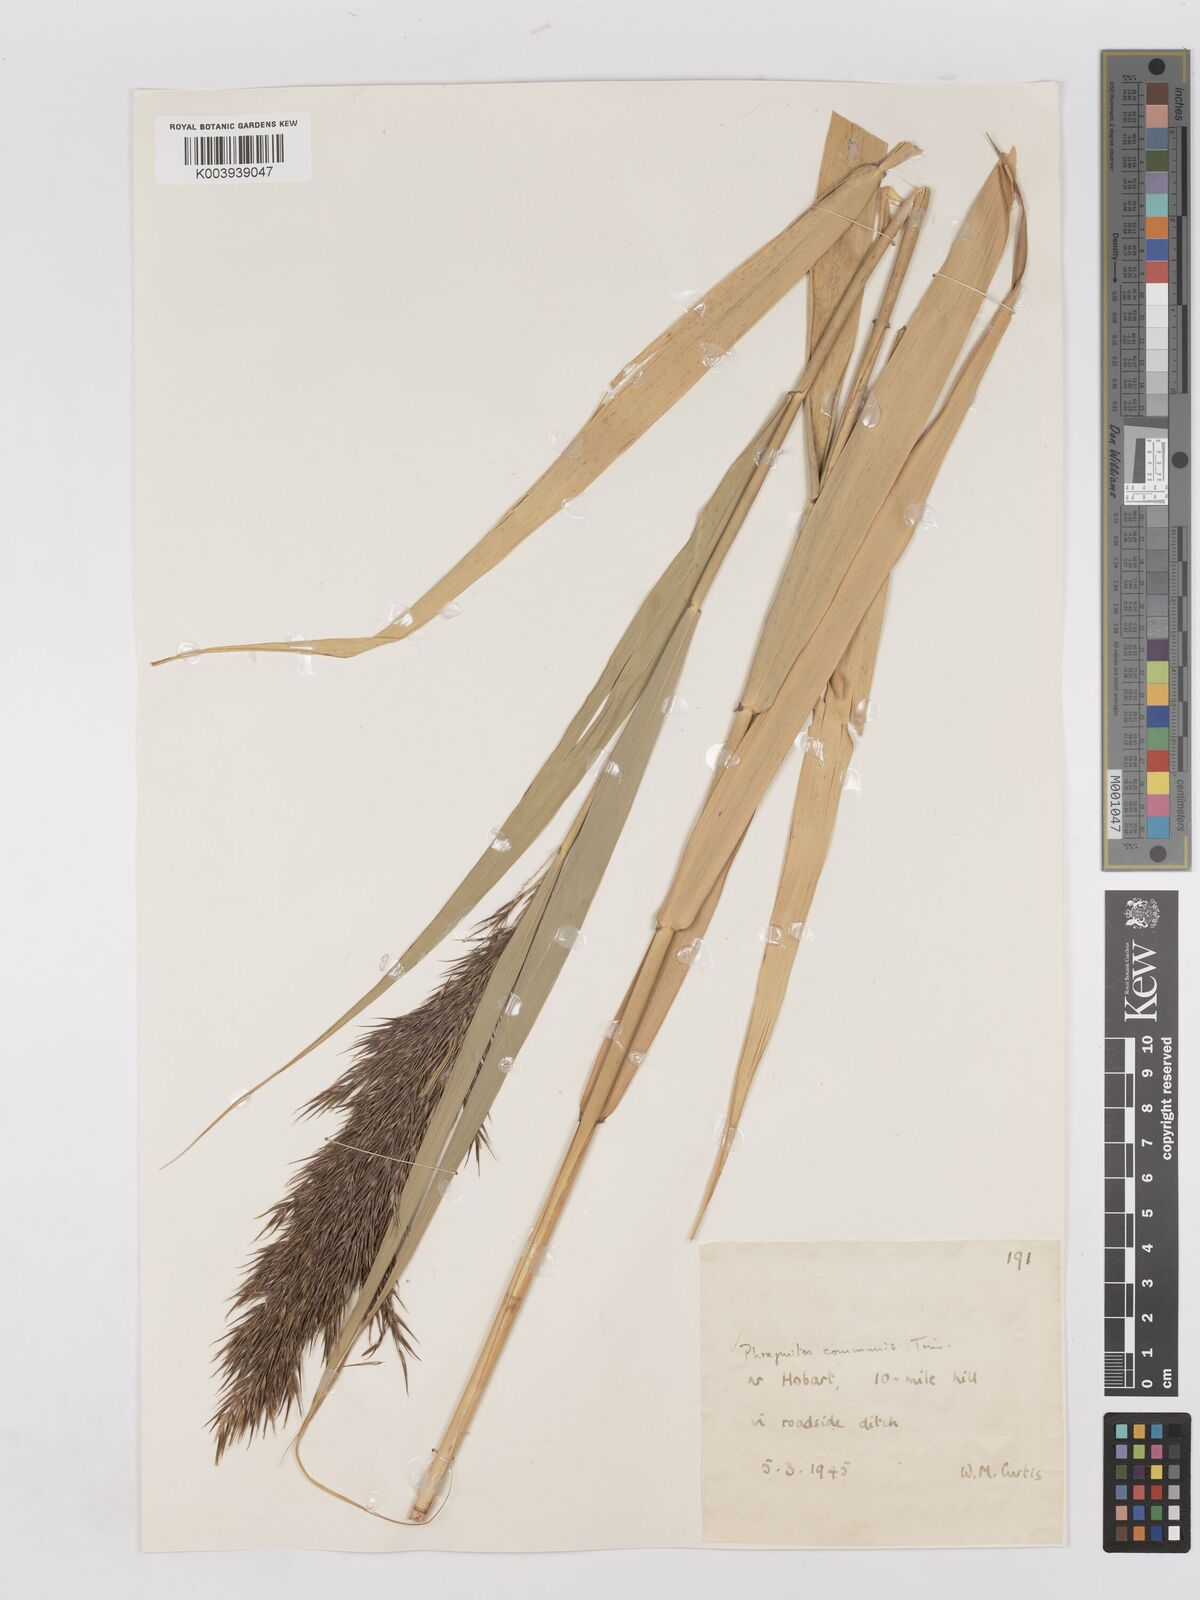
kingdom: Plantae
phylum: Tracheophyta
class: Liliopsida
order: Poales
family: Poaceae
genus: Phragmites
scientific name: Phragmites australis
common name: Common reed
